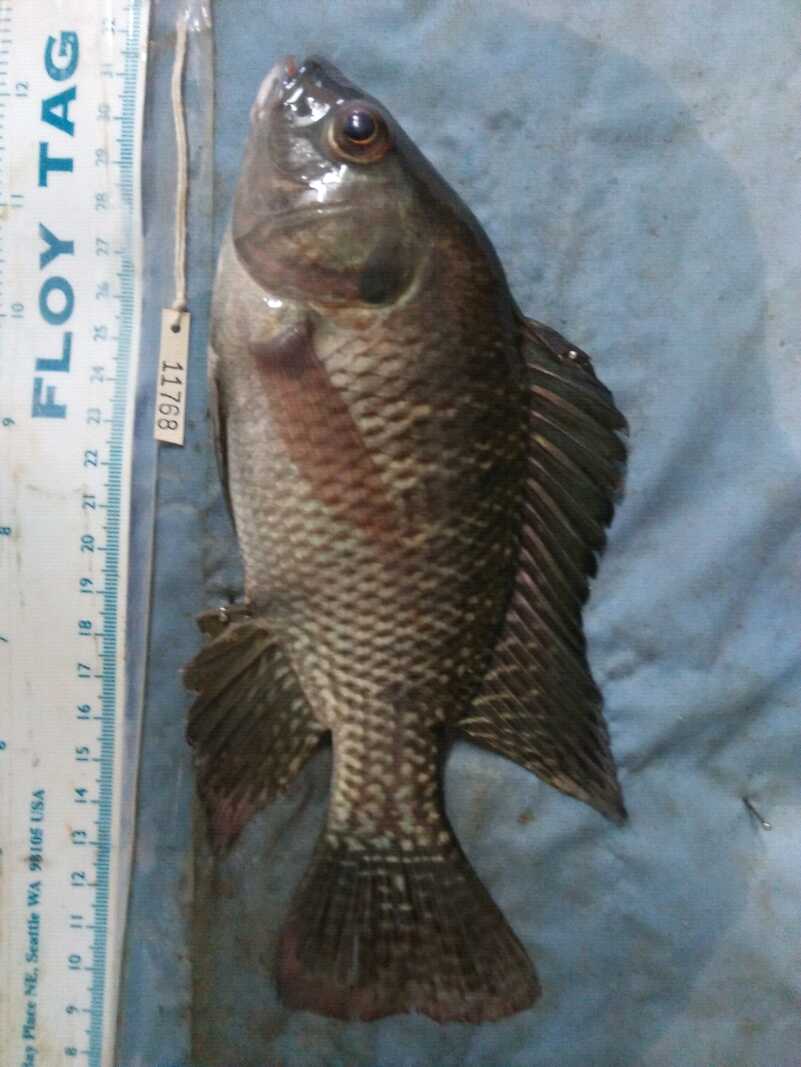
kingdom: Animalia
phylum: Chordata
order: Perciformes
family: Cichlidae
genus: Oreochromis
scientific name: Oreochromis niloticus
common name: Nile tilapia
